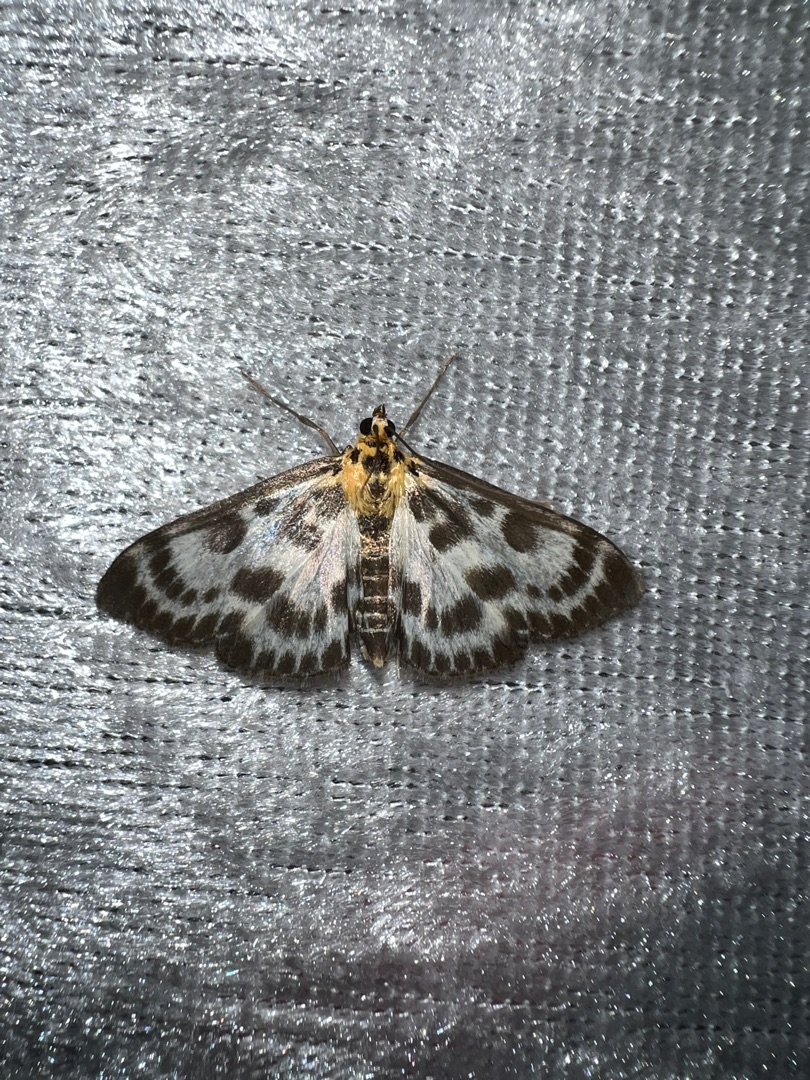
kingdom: Animalia
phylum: Arthropoda
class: Insecta
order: Lepidoptera
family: Crambidae
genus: Anania
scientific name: Anania hortulata
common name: Nældehalvmøl
